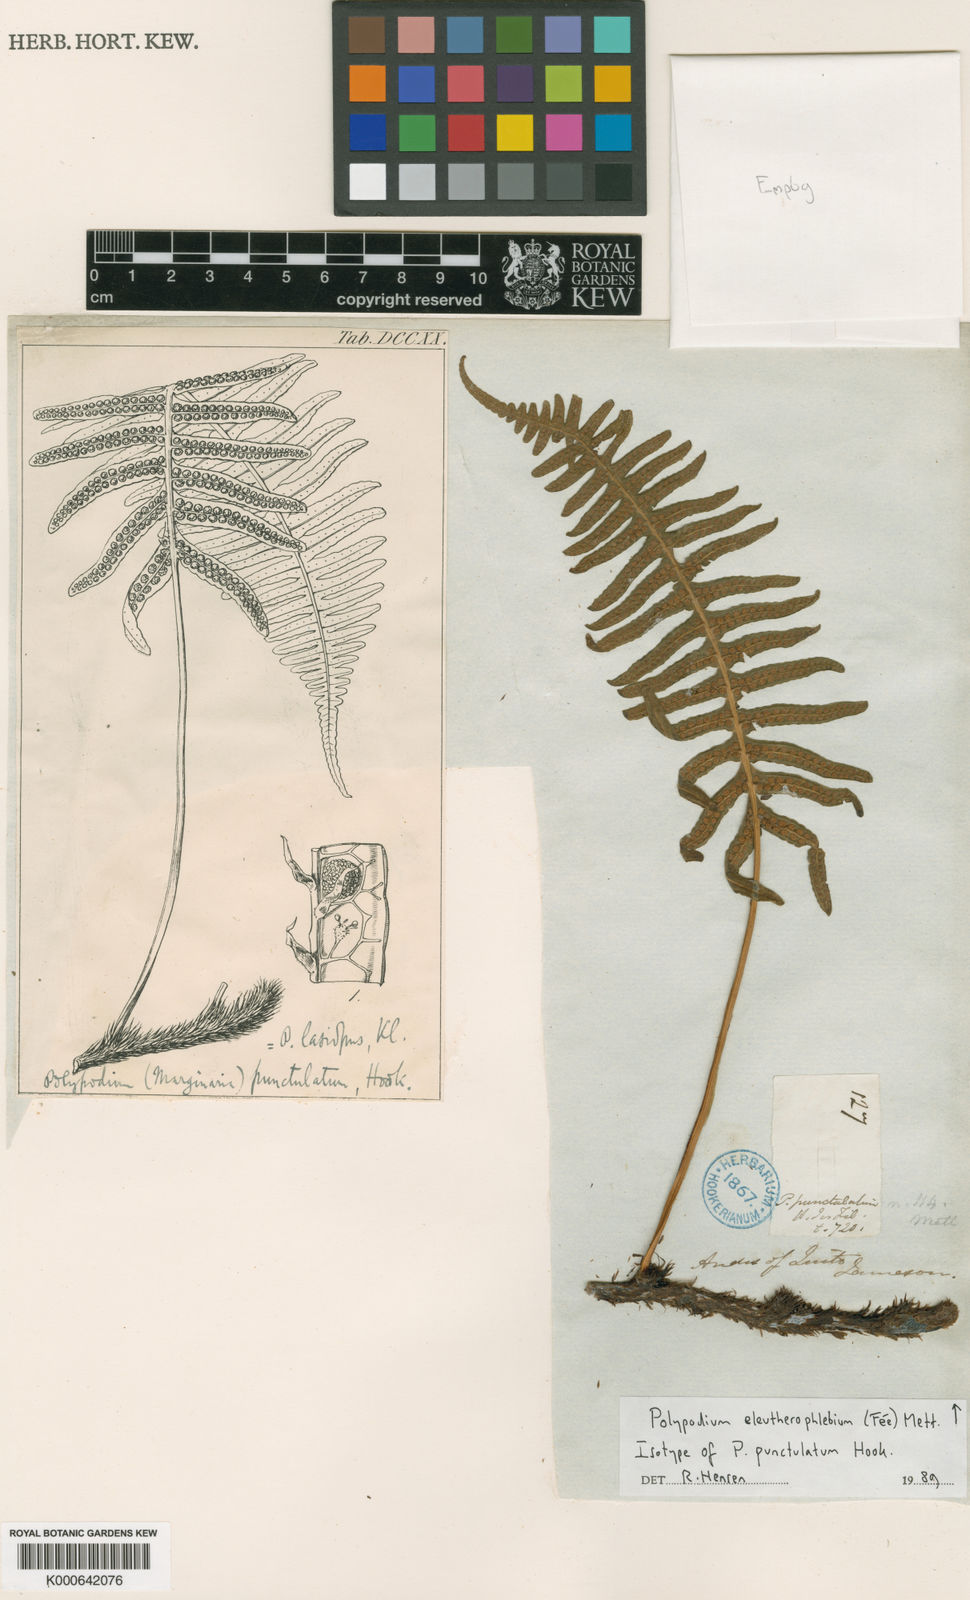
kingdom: Plantae
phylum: Tracheophyta
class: Polypodiopsida
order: Polypodiales
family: Polypodiaceae
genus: Polypodium
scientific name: Polypodium
